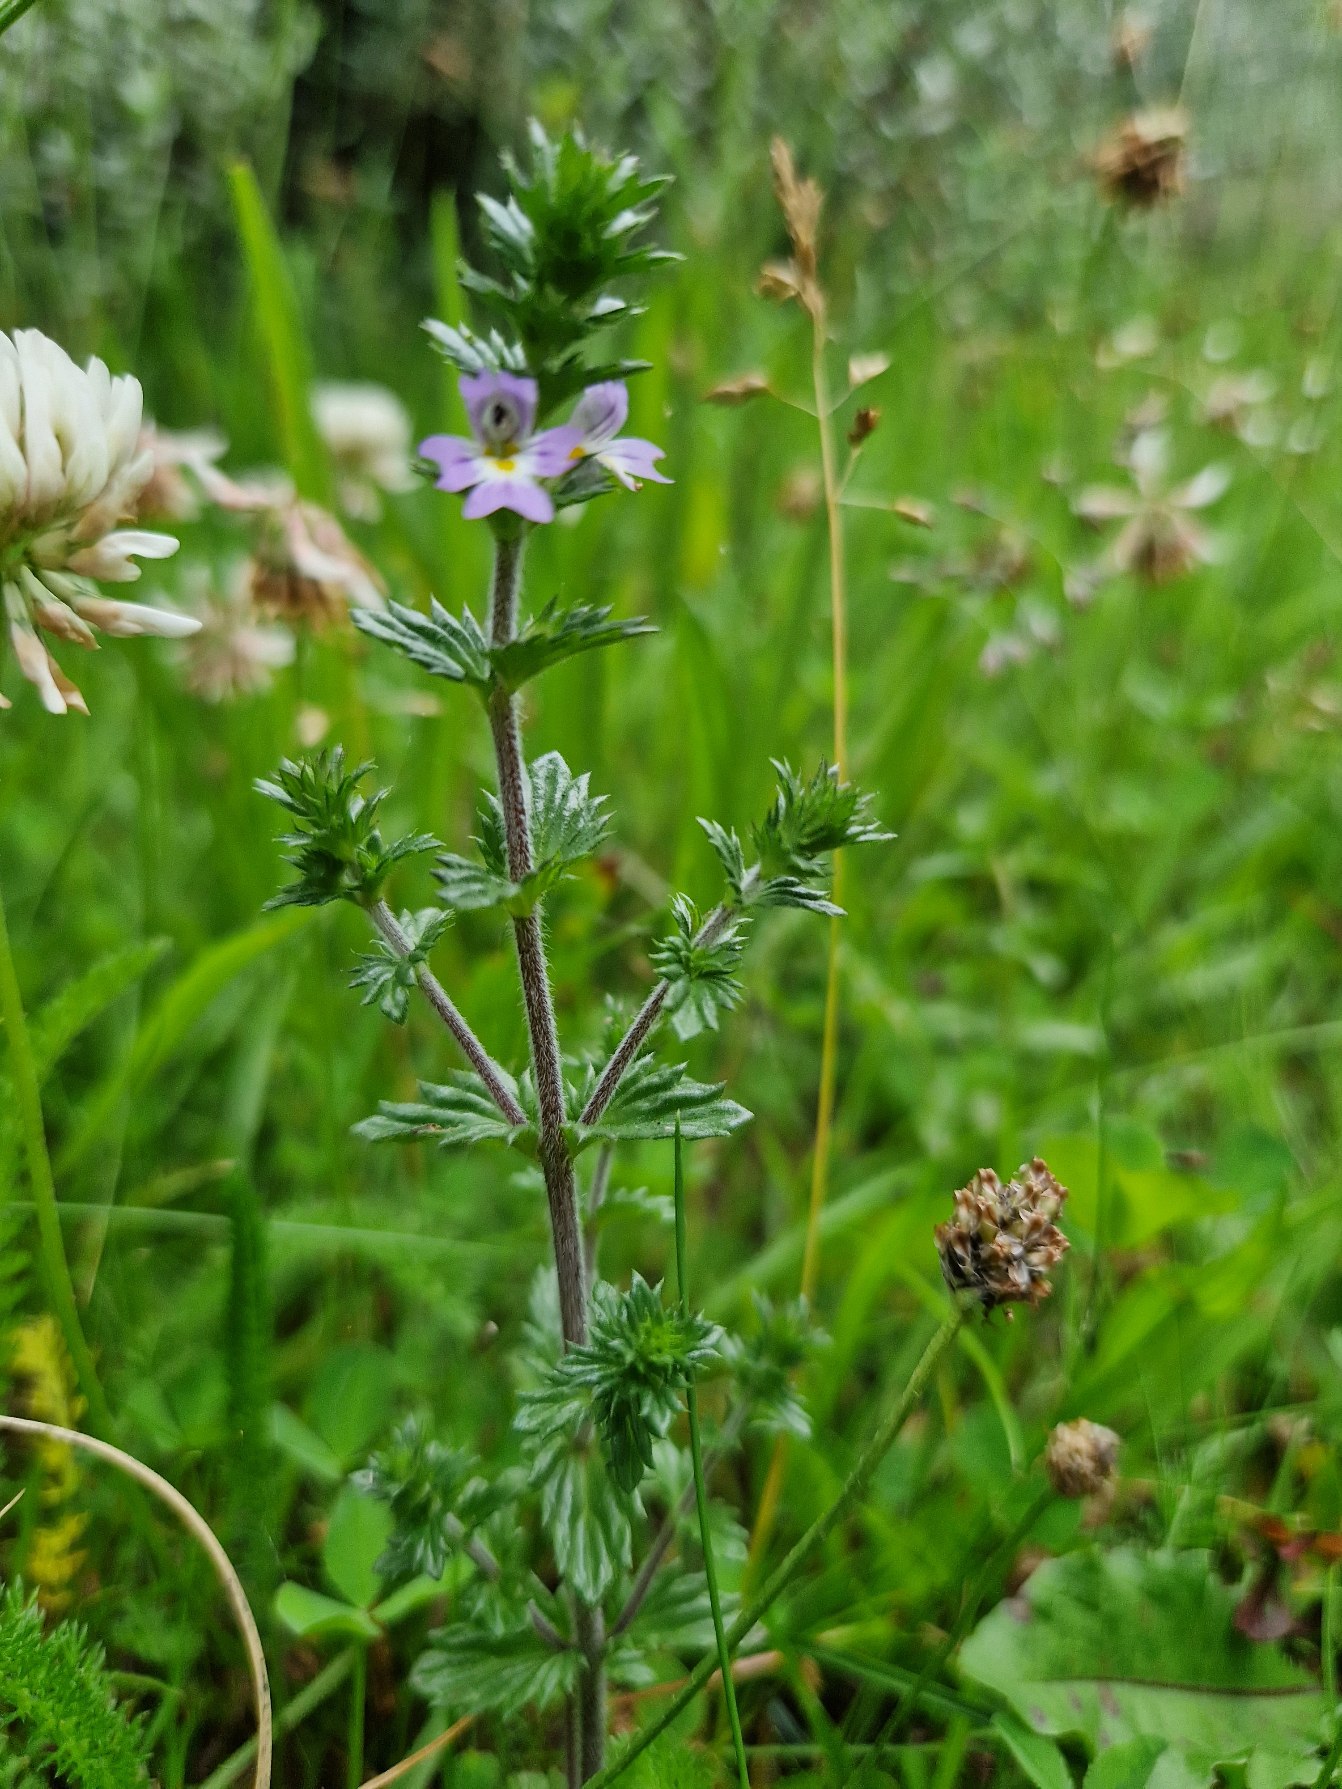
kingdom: Plantae
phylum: Tracheophyta
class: Magnoliopsida
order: Lamiales
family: Orobanchaceae
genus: Euphrasia
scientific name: Euphrasia
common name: Øjentrøstslægten
